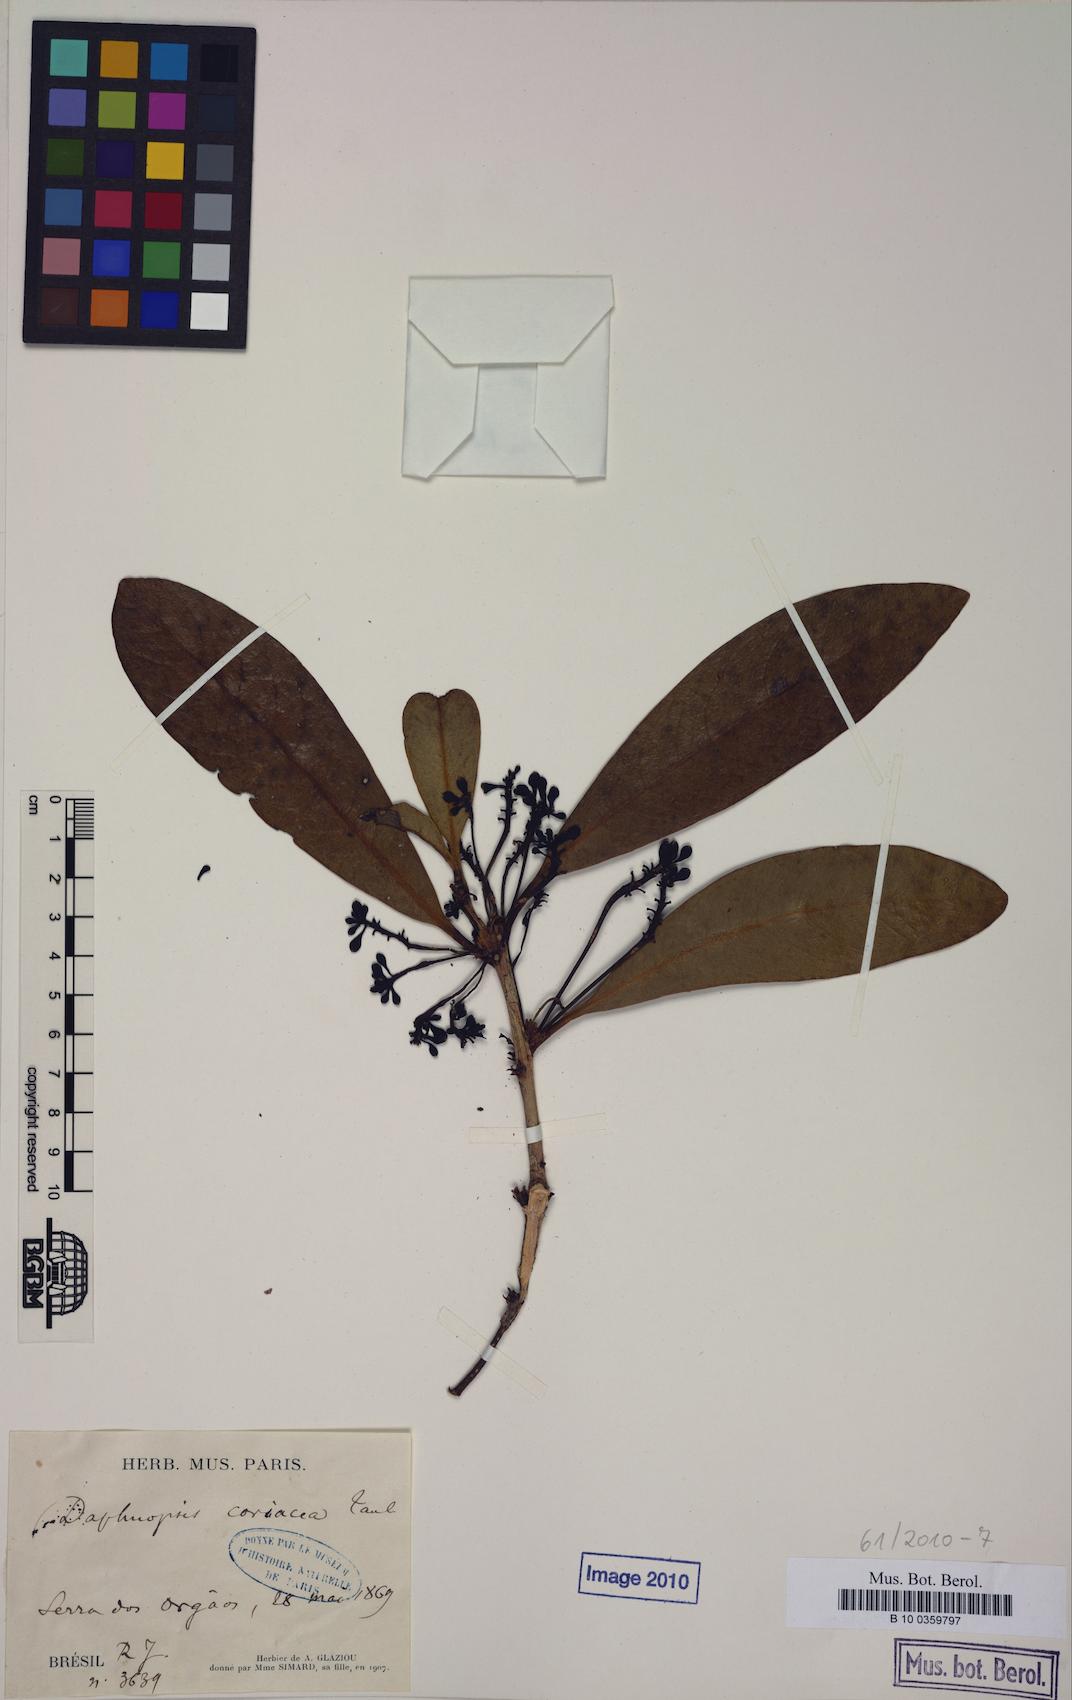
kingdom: Plantae
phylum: Tracheophyta
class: Magnoliopsida
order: Malvales
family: Thymelaeaceae
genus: Daphnopsis
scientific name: Daphnopsis coriacea
